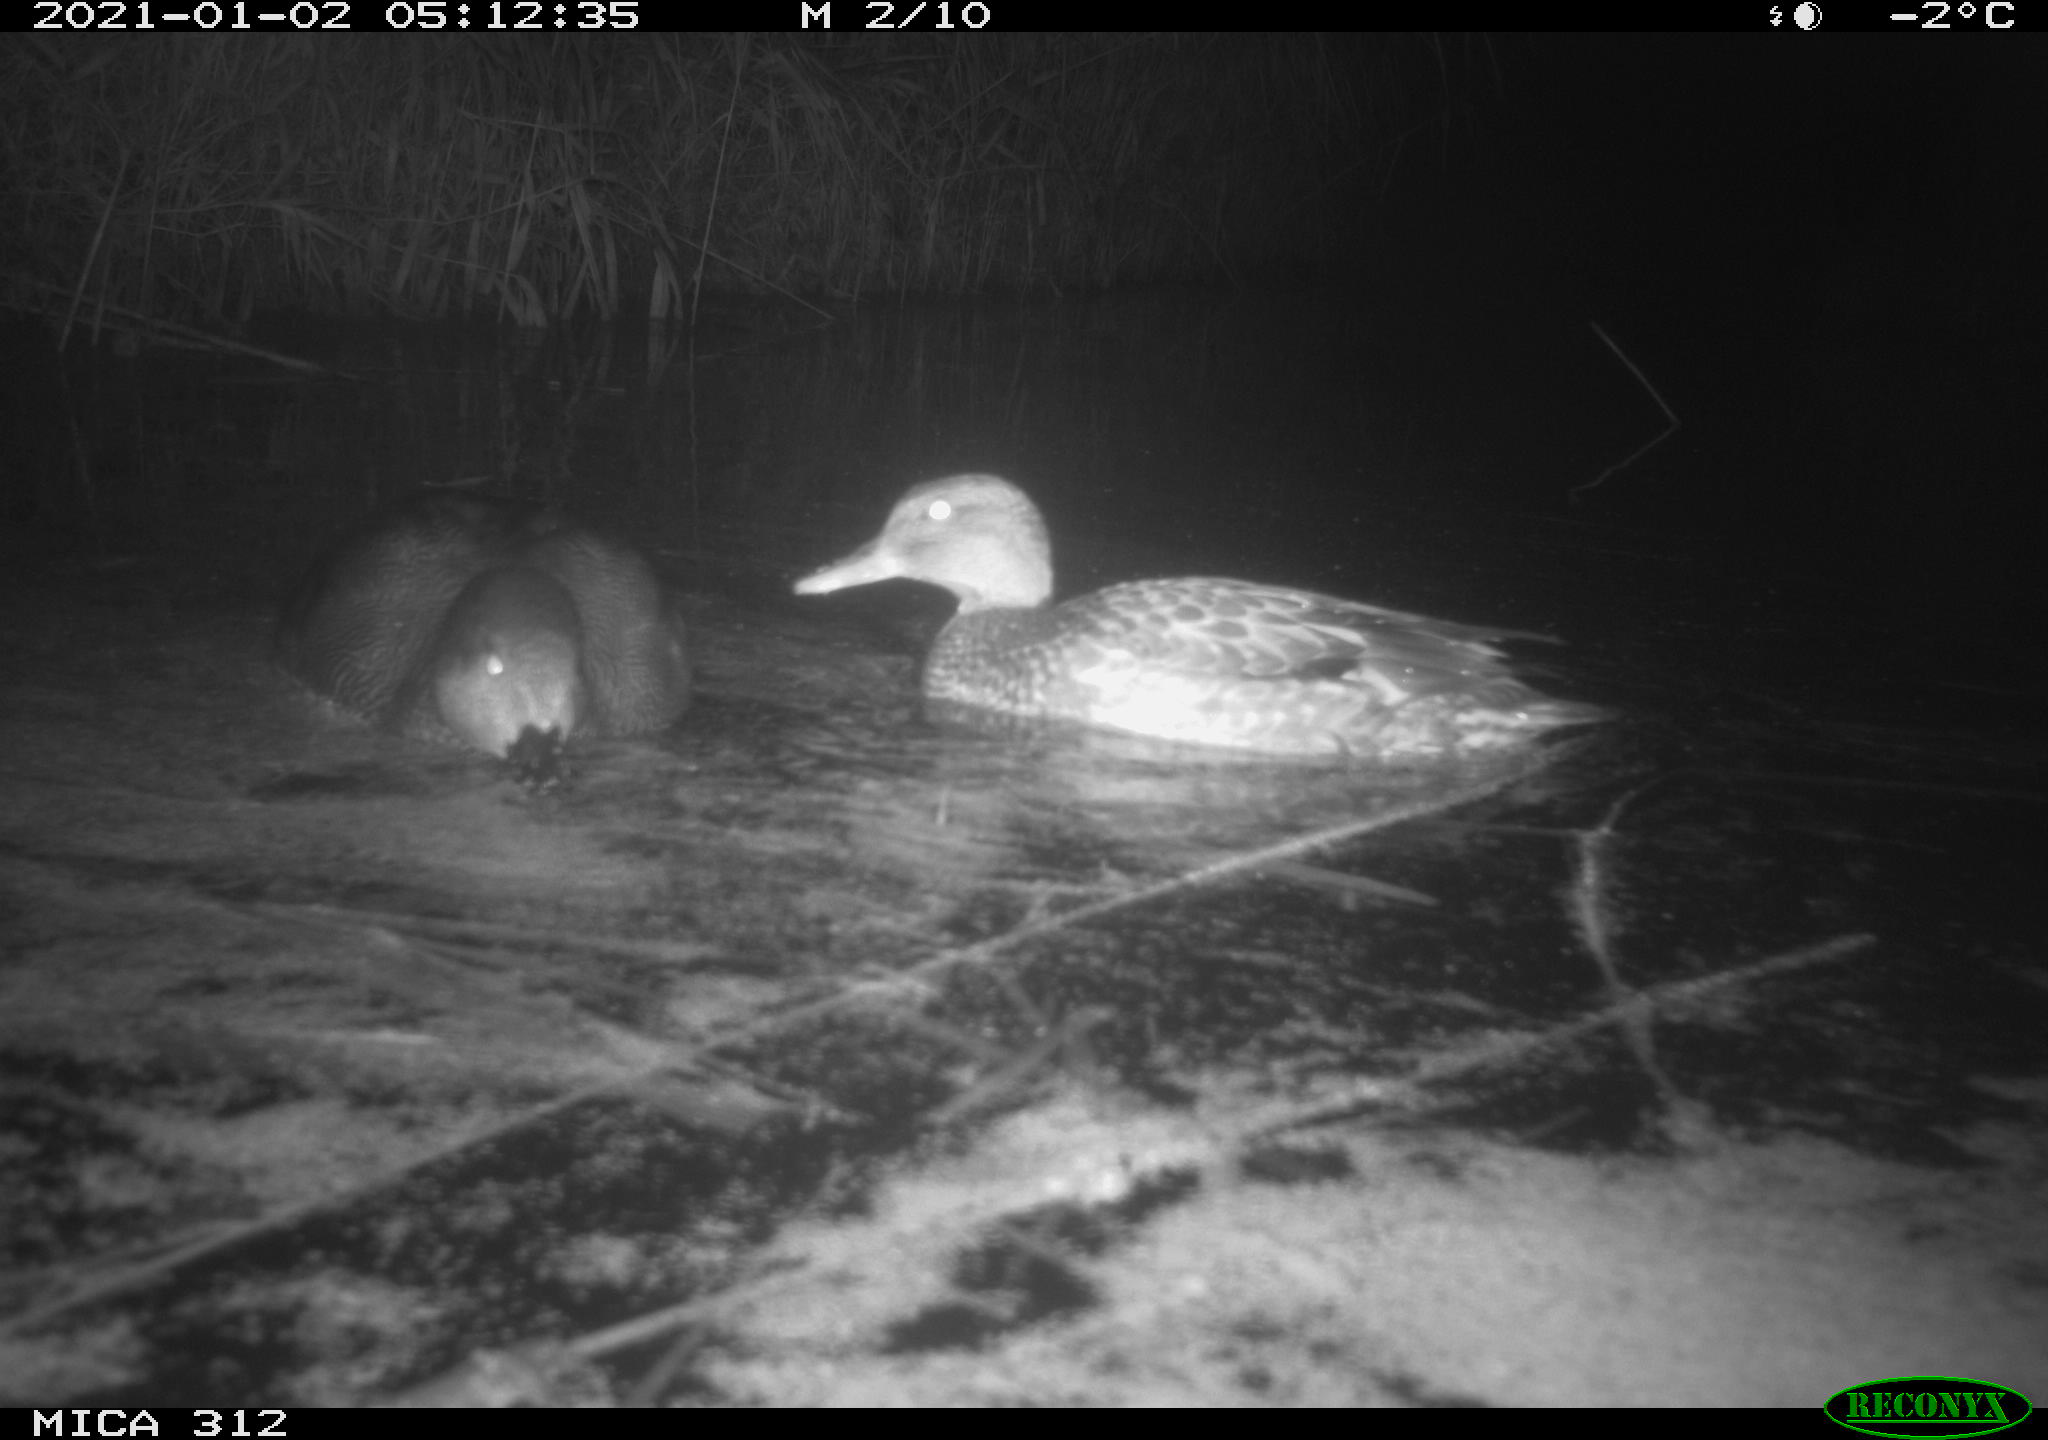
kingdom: Animalia
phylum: Chordata
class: Aves
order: Anseriformes
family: Anatidae
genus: Mareca
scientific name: Mareca strepera
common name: Gadwall
